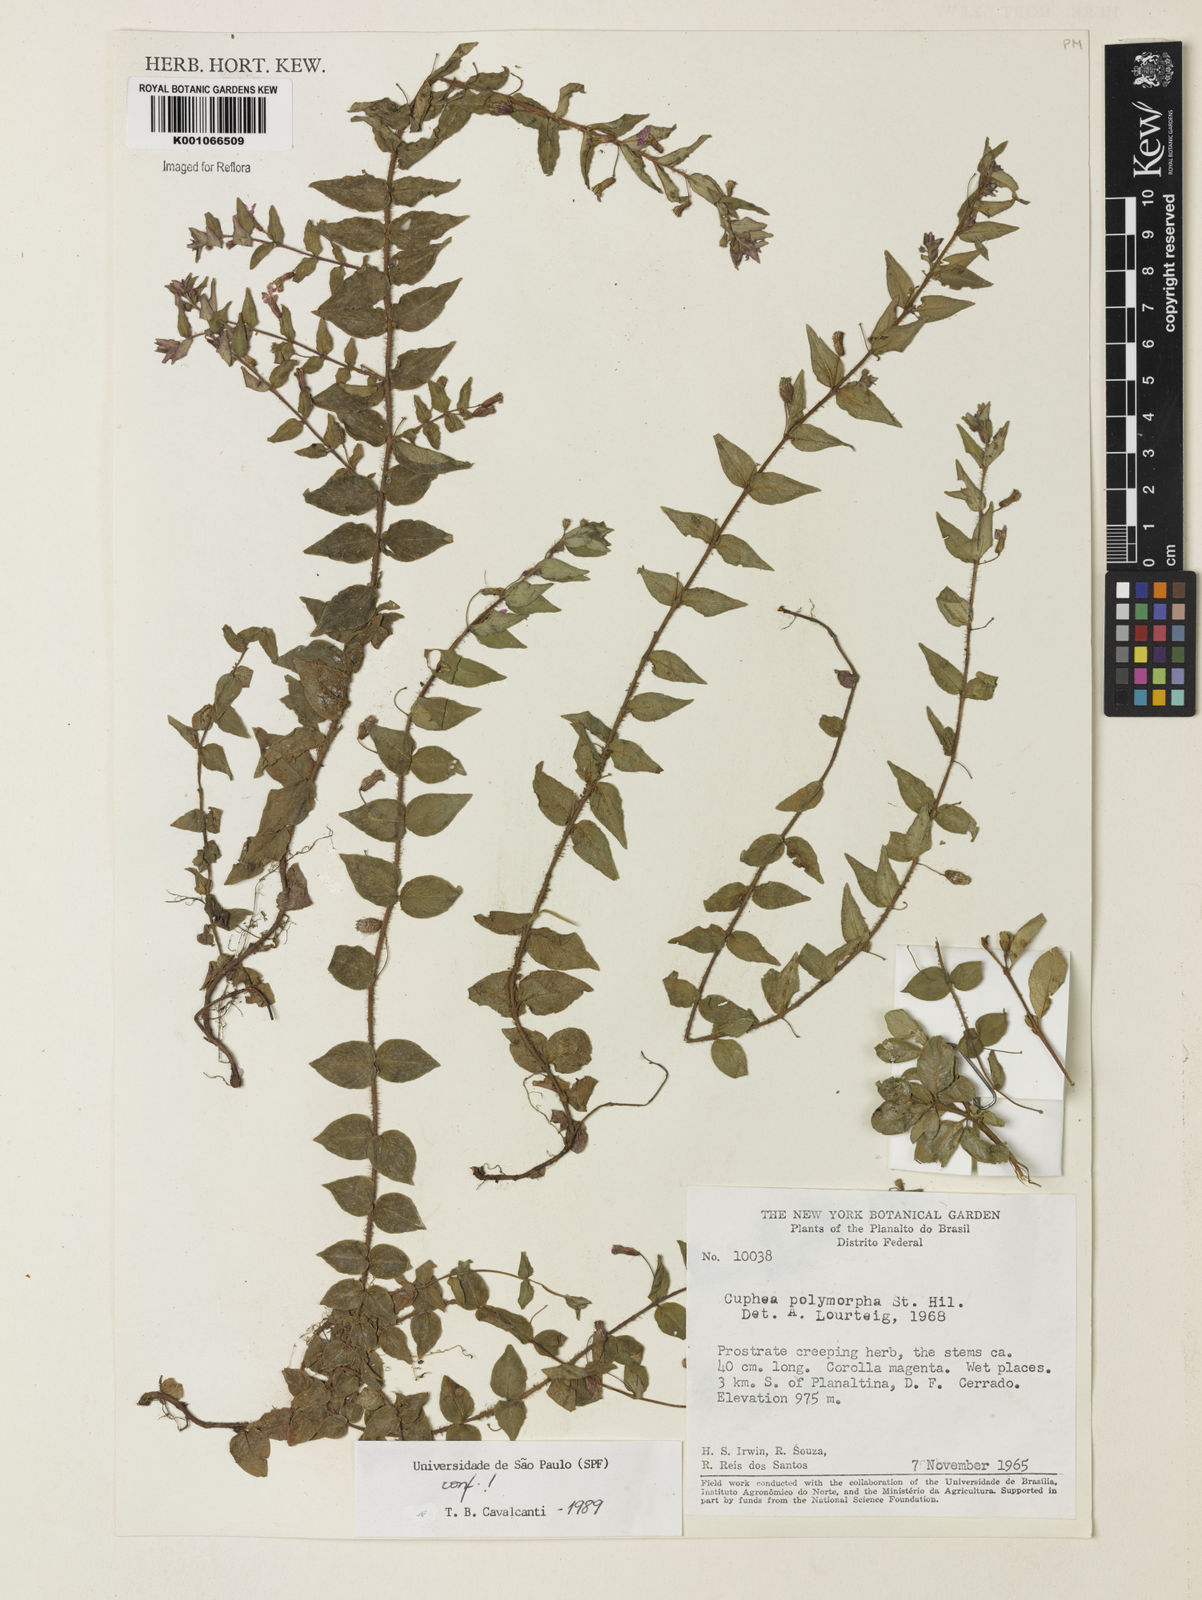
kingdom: Plantae
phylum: Tracheophyta
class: Magnoliopsida
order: Myrtales
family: Lythraceae
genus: Cuphea
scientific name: Cuphea polymorpha
